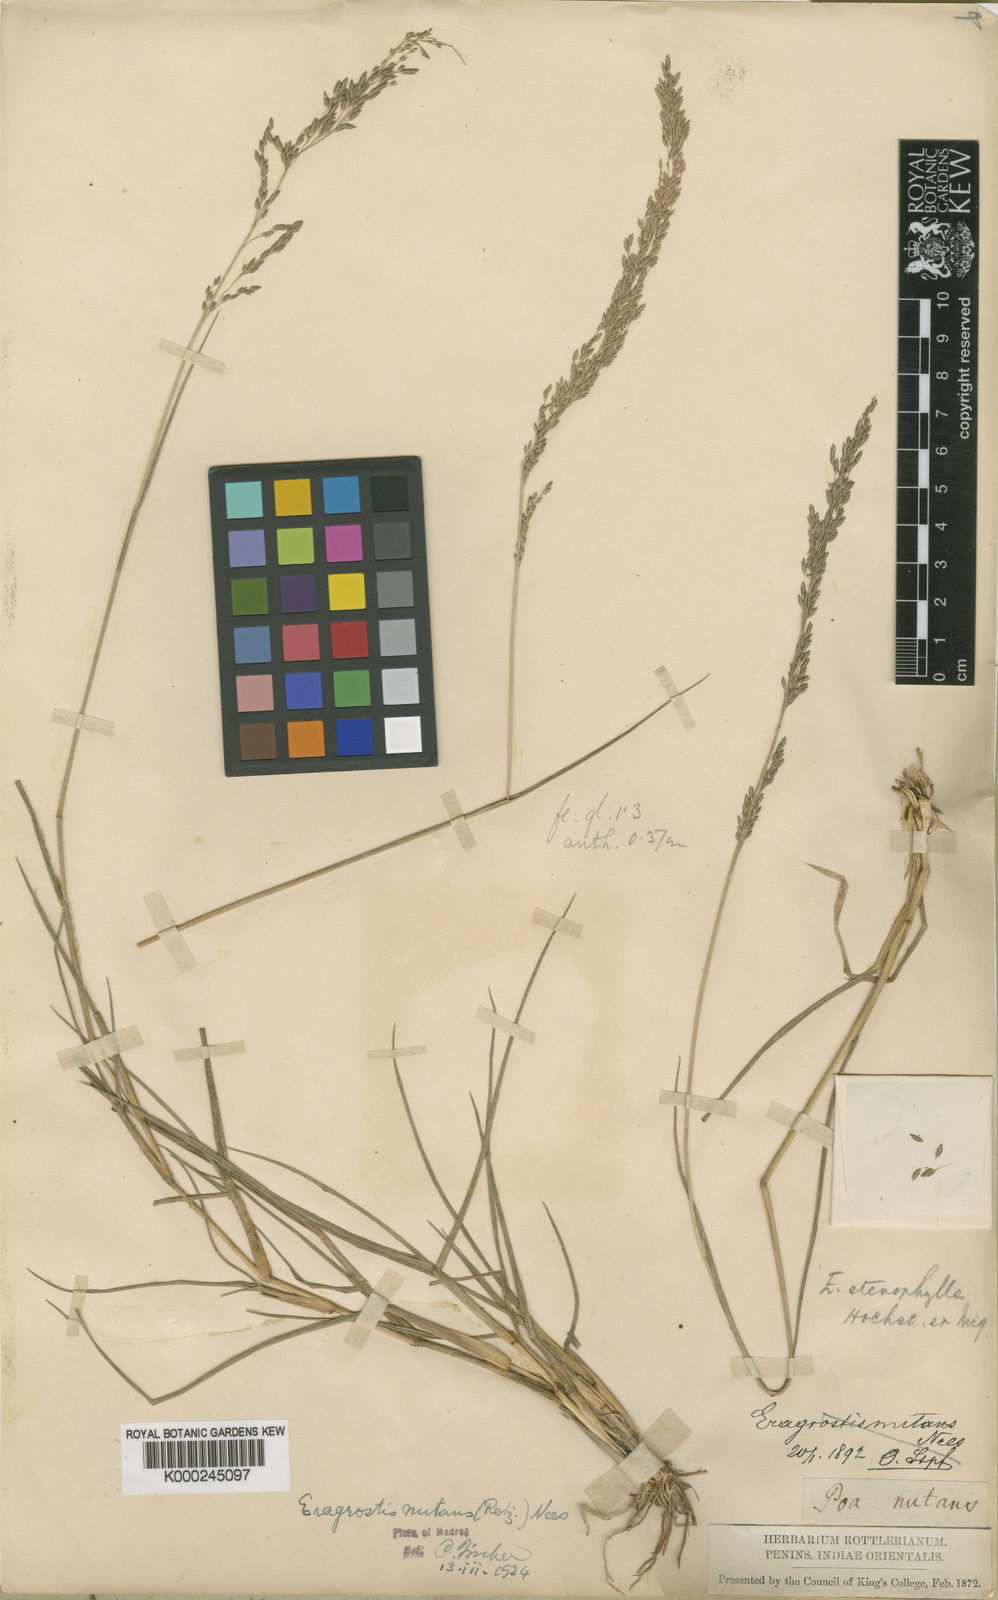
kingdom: Plantae
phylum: Tracheophyta
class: Liliopsida
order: Poales
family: Poaceae
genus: Eragrostis
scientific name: Eragrostis nutans
